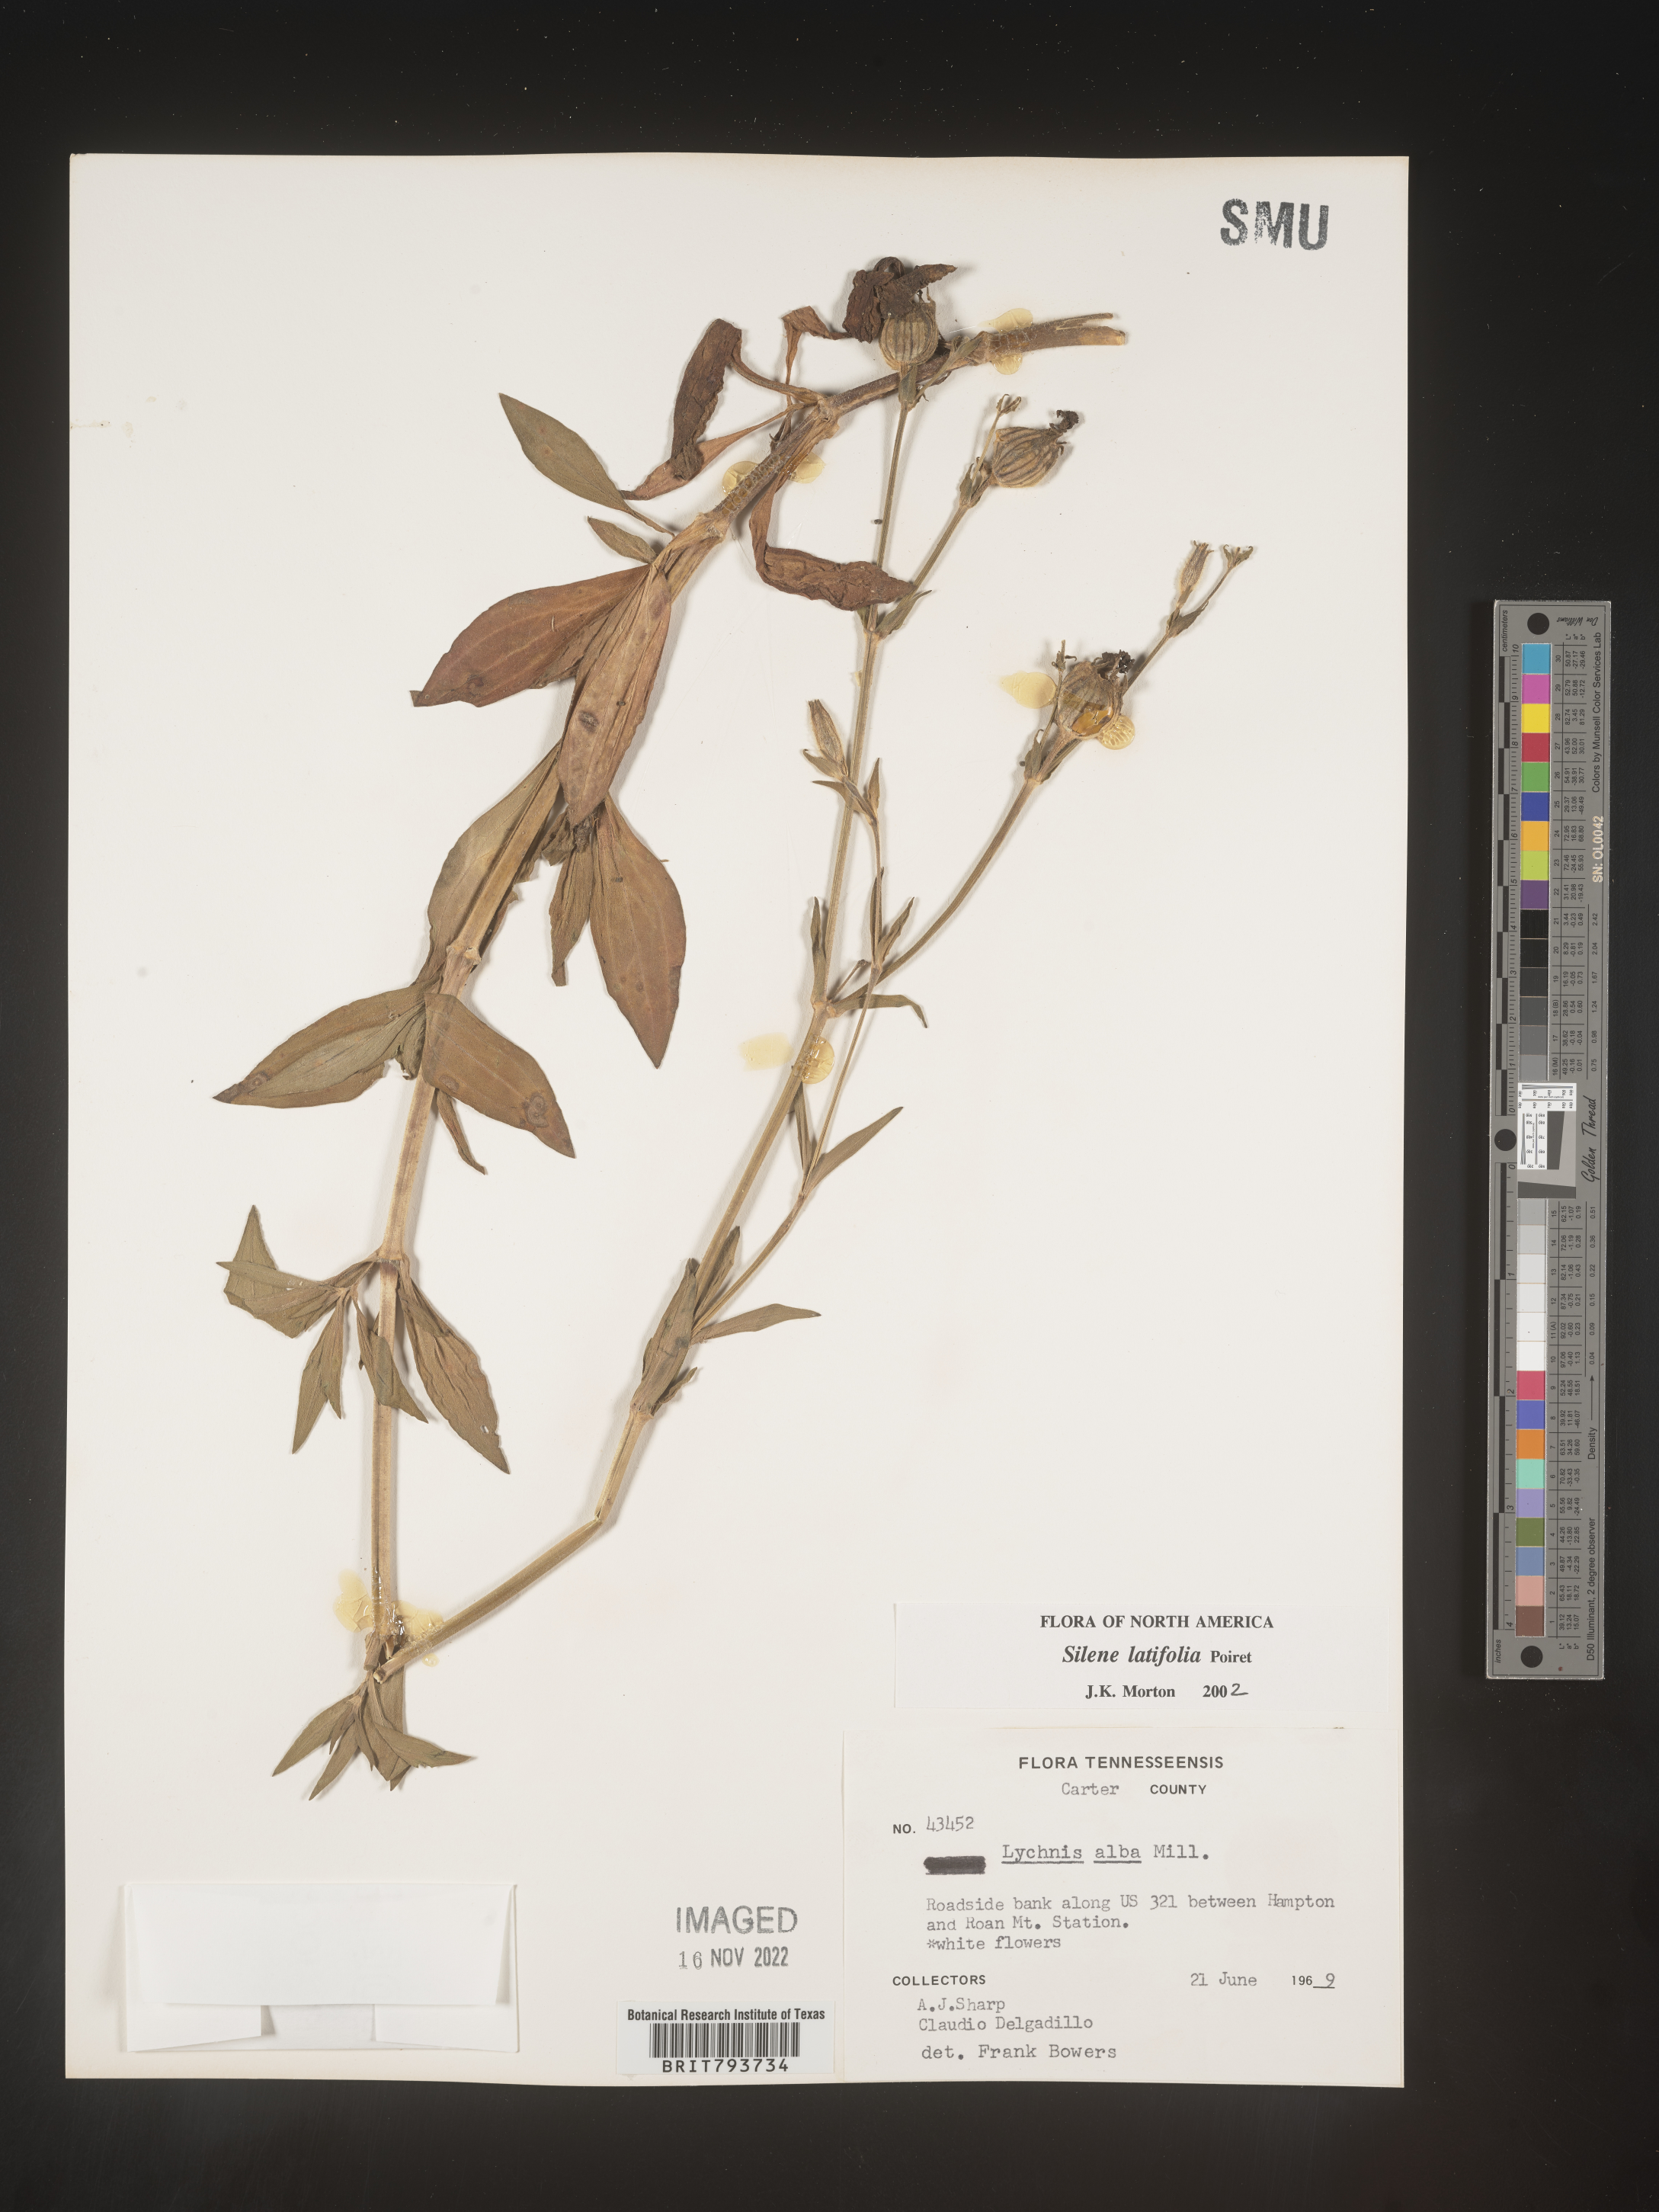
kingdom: Plantae
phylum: Tracheophyta
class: Magnoliopsida
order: Caryophyllales
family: Caryophyllaceae
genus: Silene
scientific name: Silene latifolia
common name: White campion
